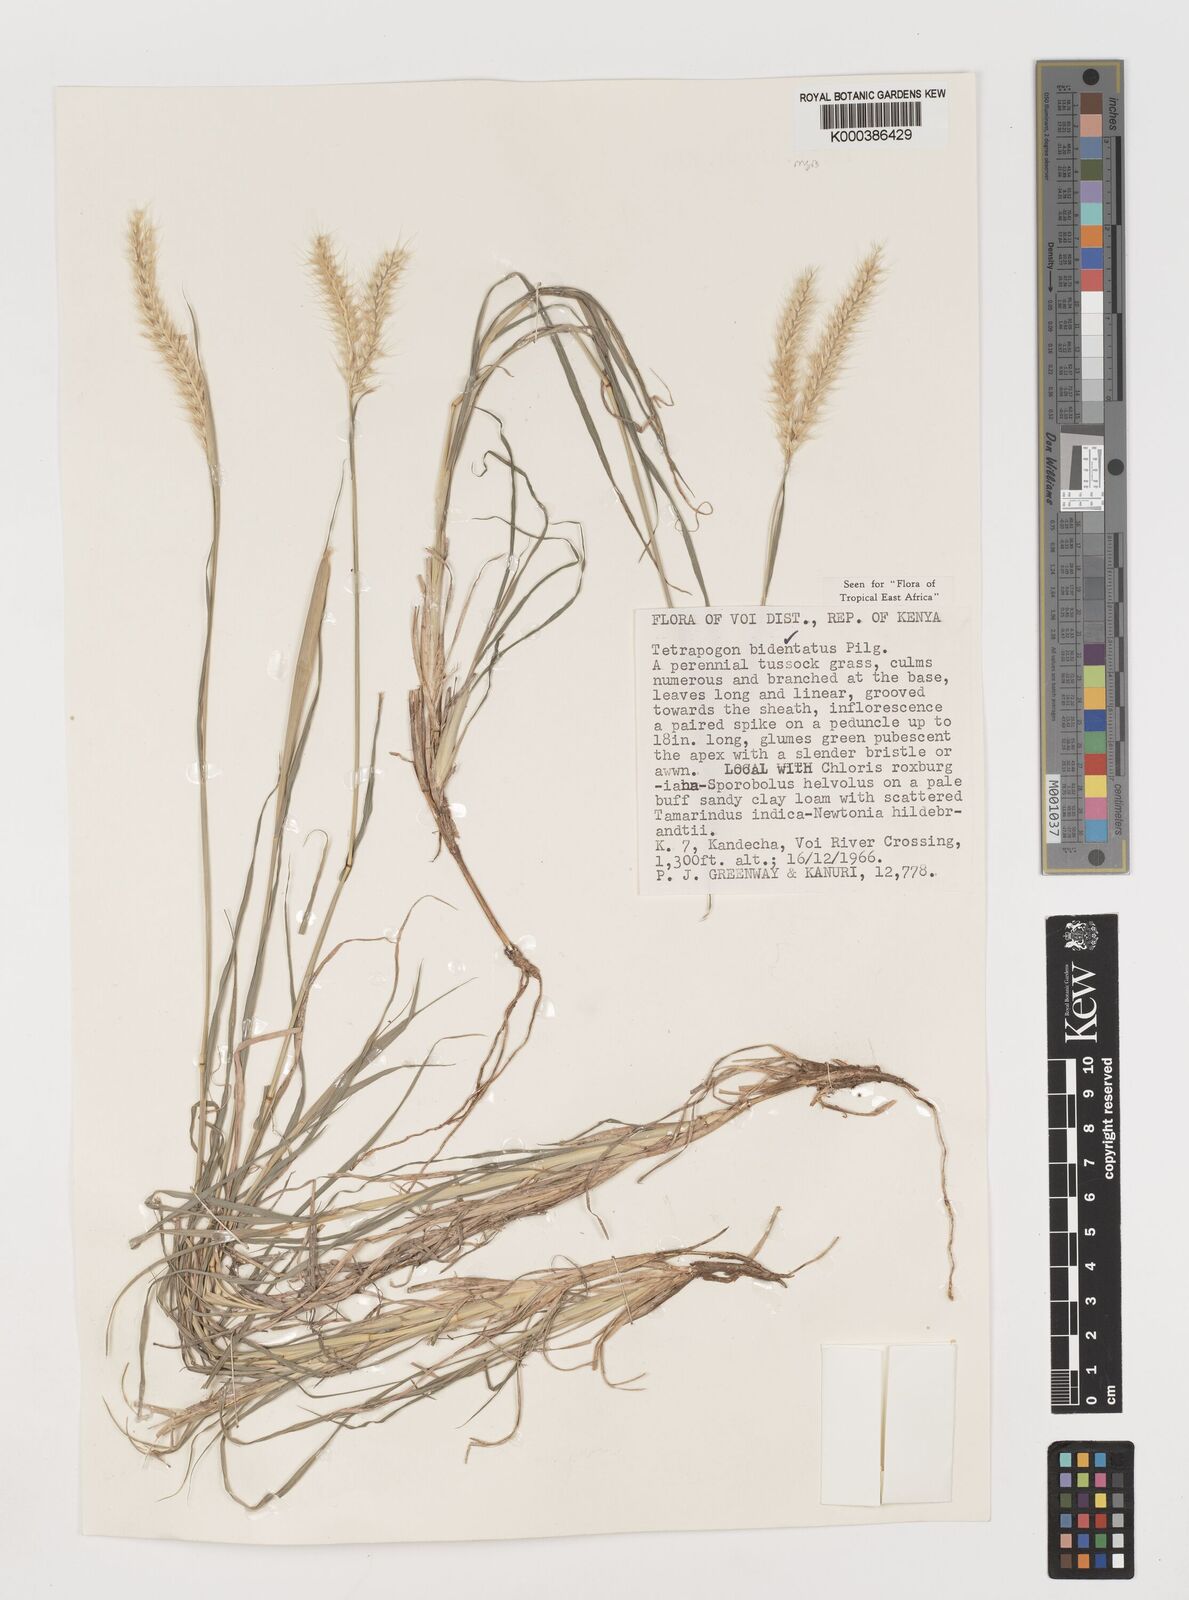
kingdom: Plantae
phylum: Tracheophyta
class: Liliopsida
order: Poales
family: Poaceae
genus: Tetrapogon
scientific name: Tetrapogon bidentatus
